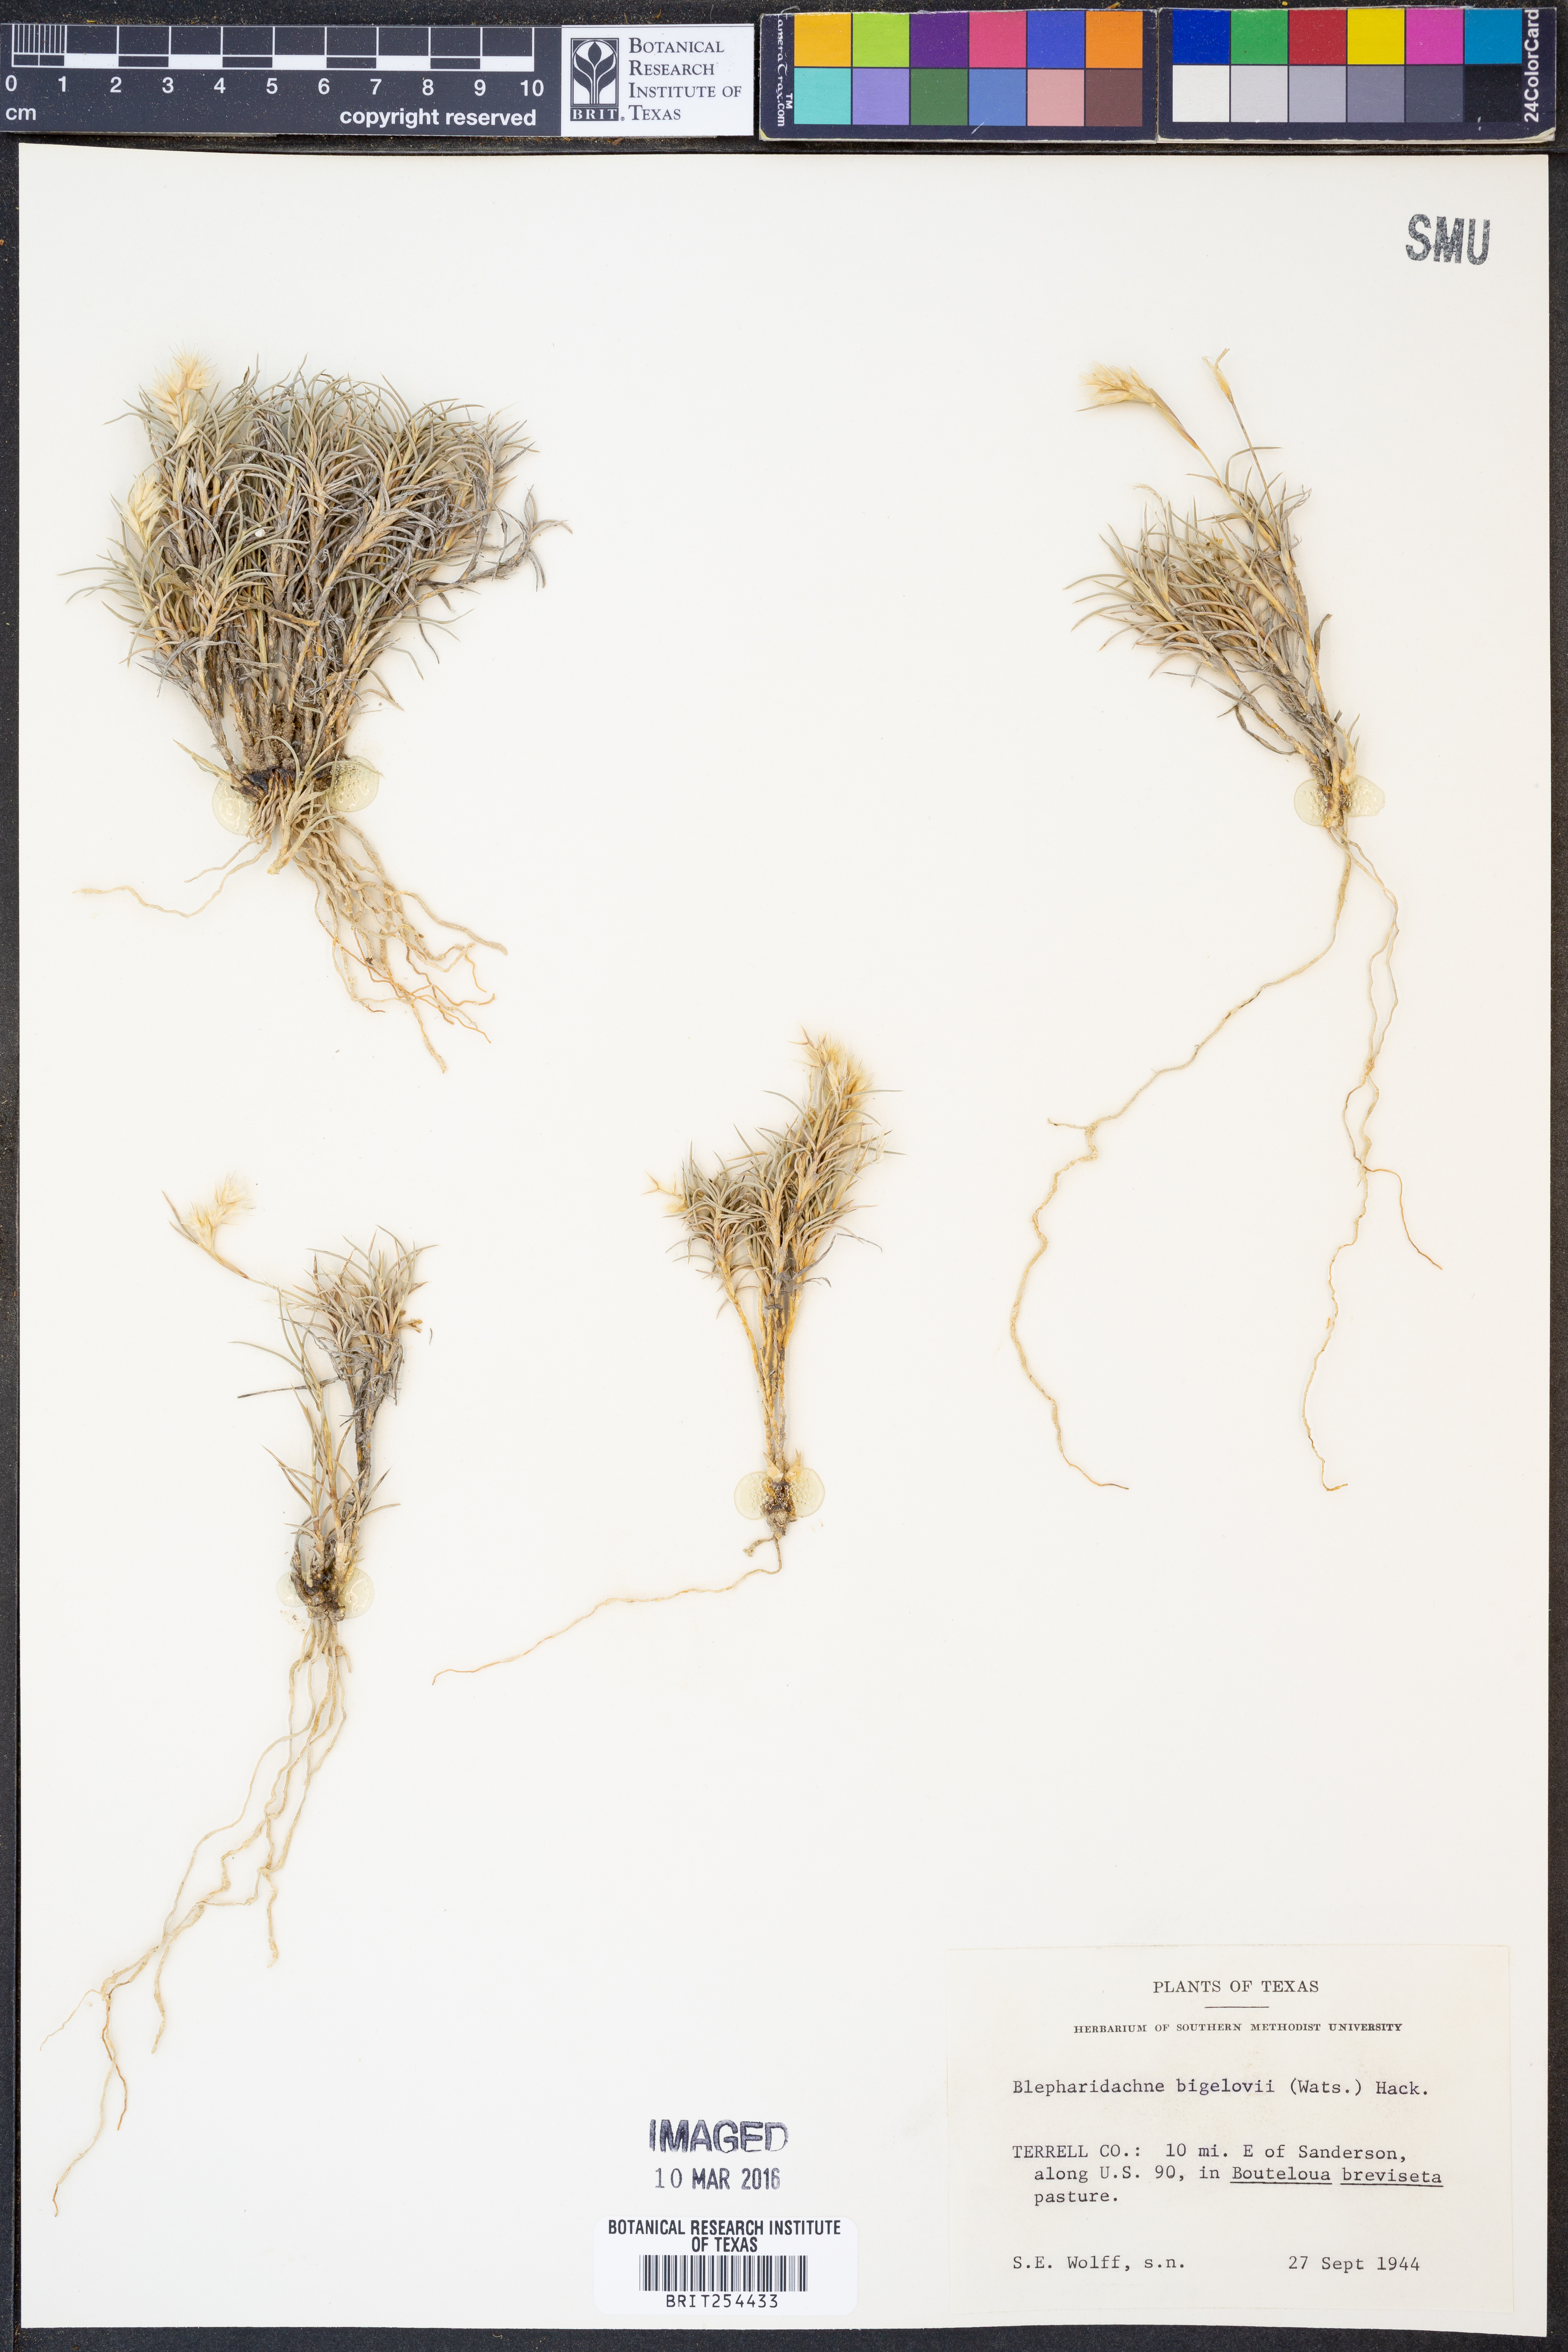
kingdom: Plantae
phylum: Tracheophyta
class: Liliopsida
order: Poales
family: Poaceae
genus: Blepharidachne
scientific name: Blepharidachne bigelovii
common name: Bigelow's desert grass
